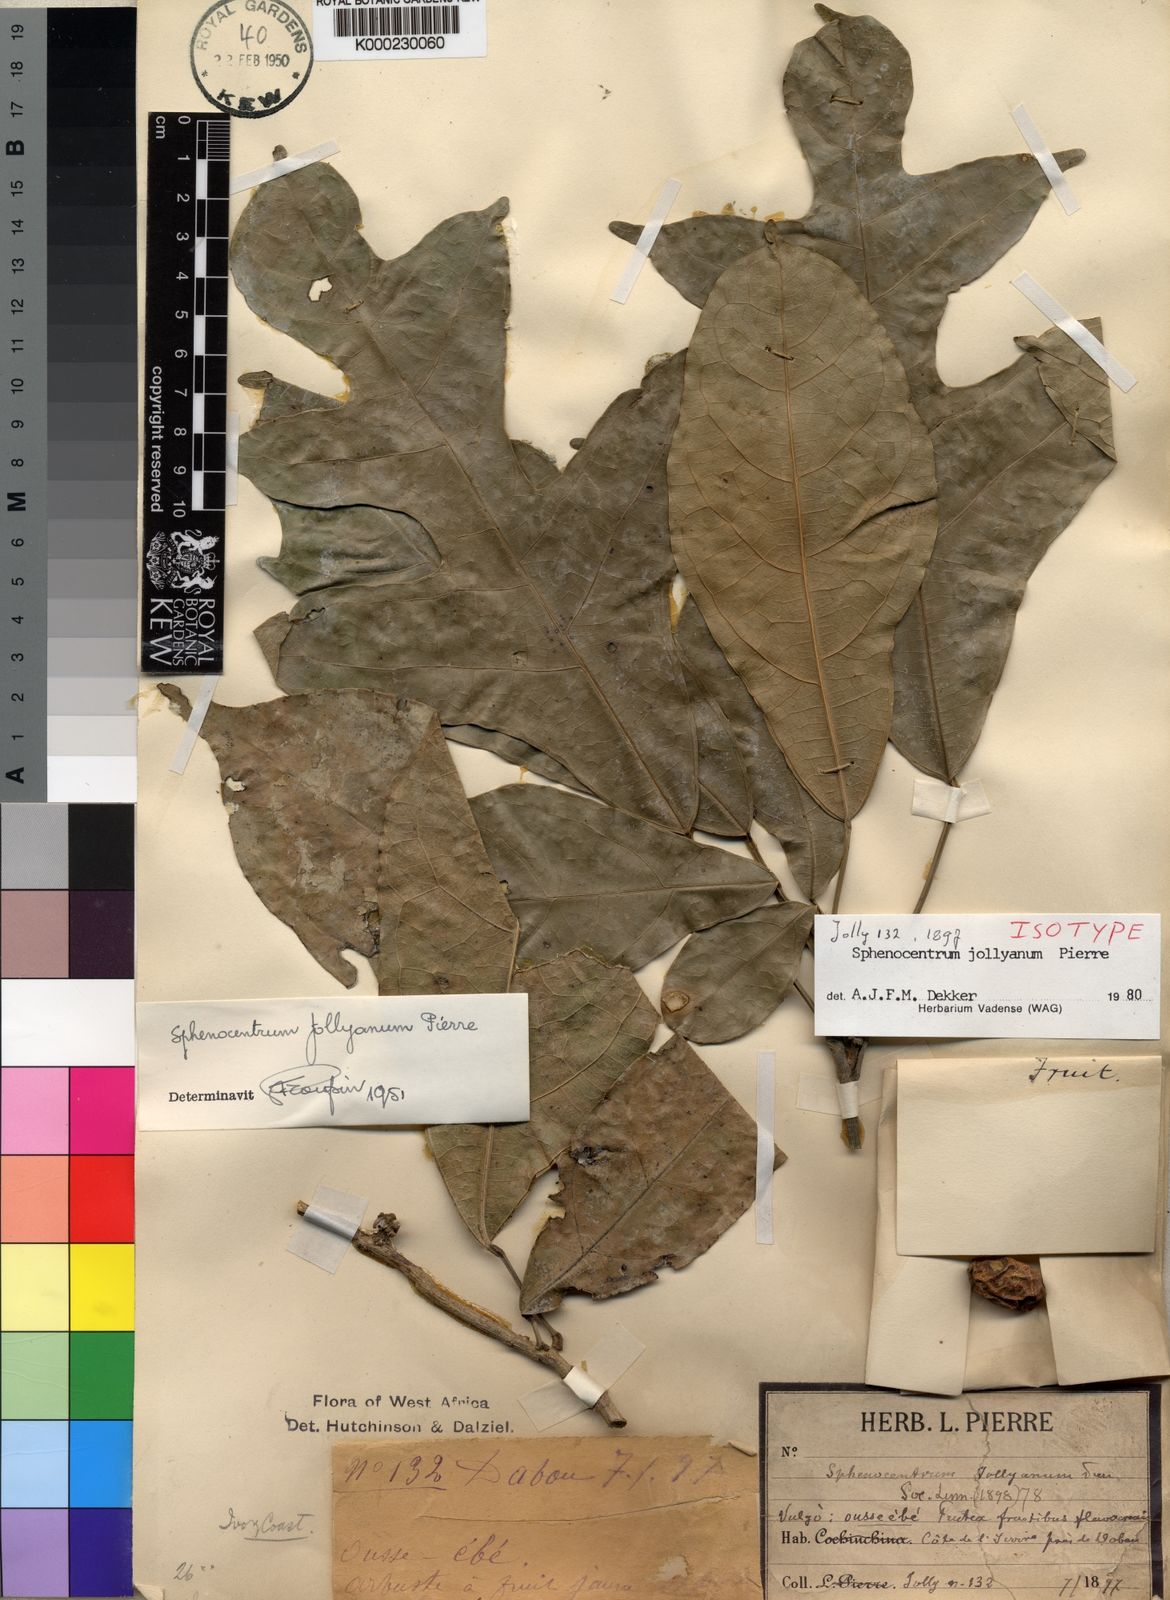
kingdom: Plantae
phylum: Tracheophyta
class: Magnoliopsida
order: Ranunculales
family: Menispermaceae
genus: Sphenocentrum
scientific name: Sphenocentrum jollyanum
